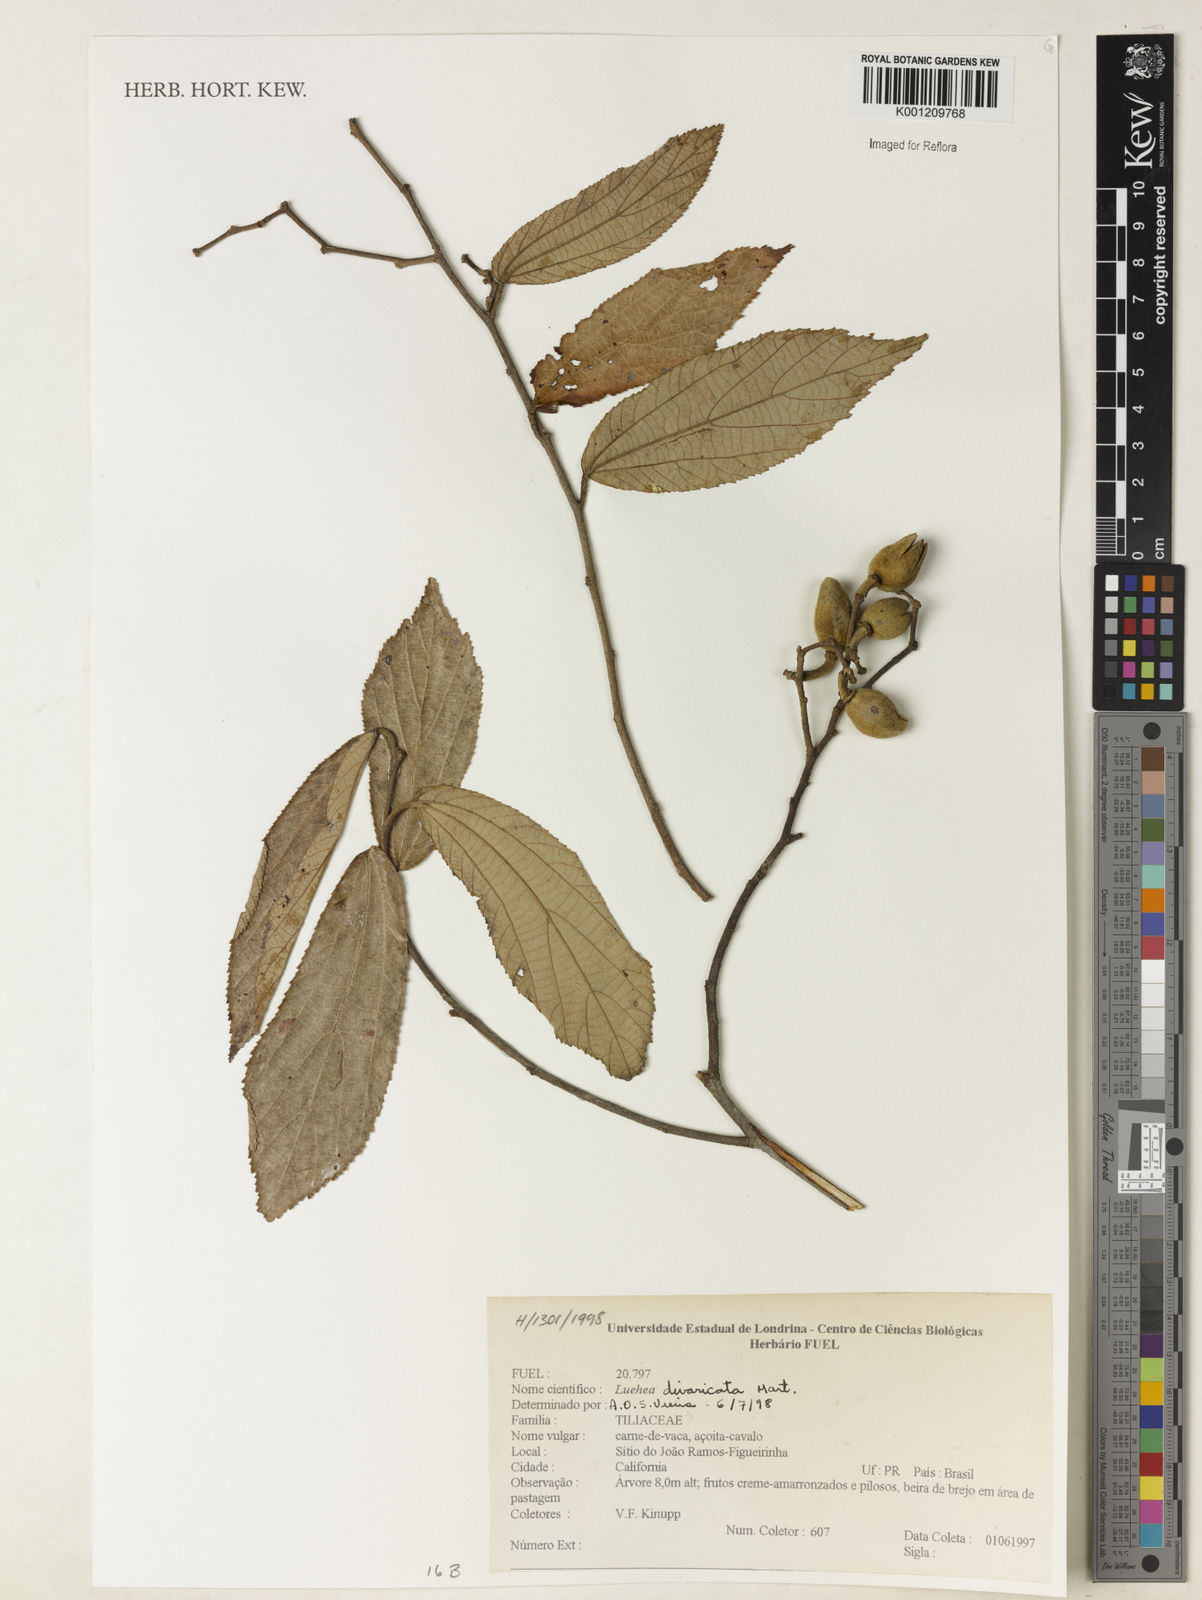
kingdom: Plantae
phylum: Tracheophyta
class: Magnoliopsida
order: Malvales
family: Malvaceae
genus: Luehea
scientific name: Luehea divaricata
